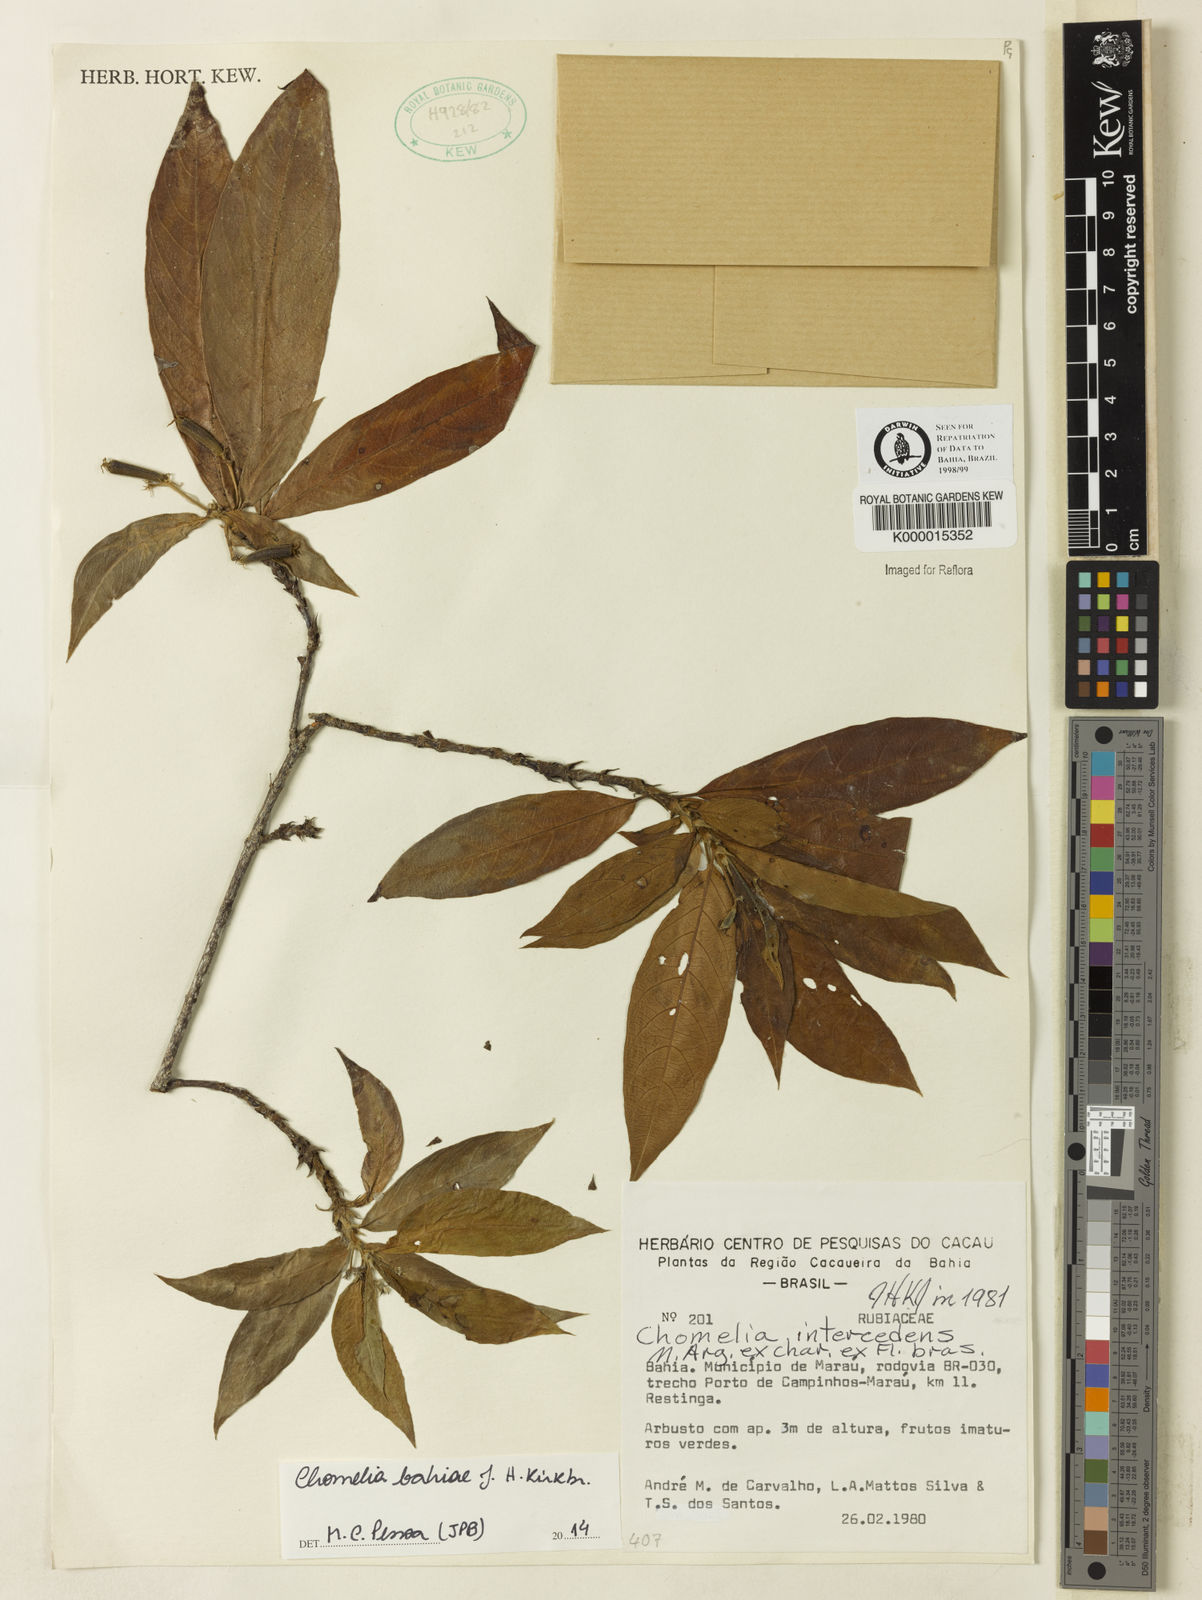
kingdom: Plantae
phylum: Tracheophyta
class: Magnoliopsida
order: Gentianales
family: Rubiaceae
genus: Chomelia
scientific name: Chomelia bahiae
